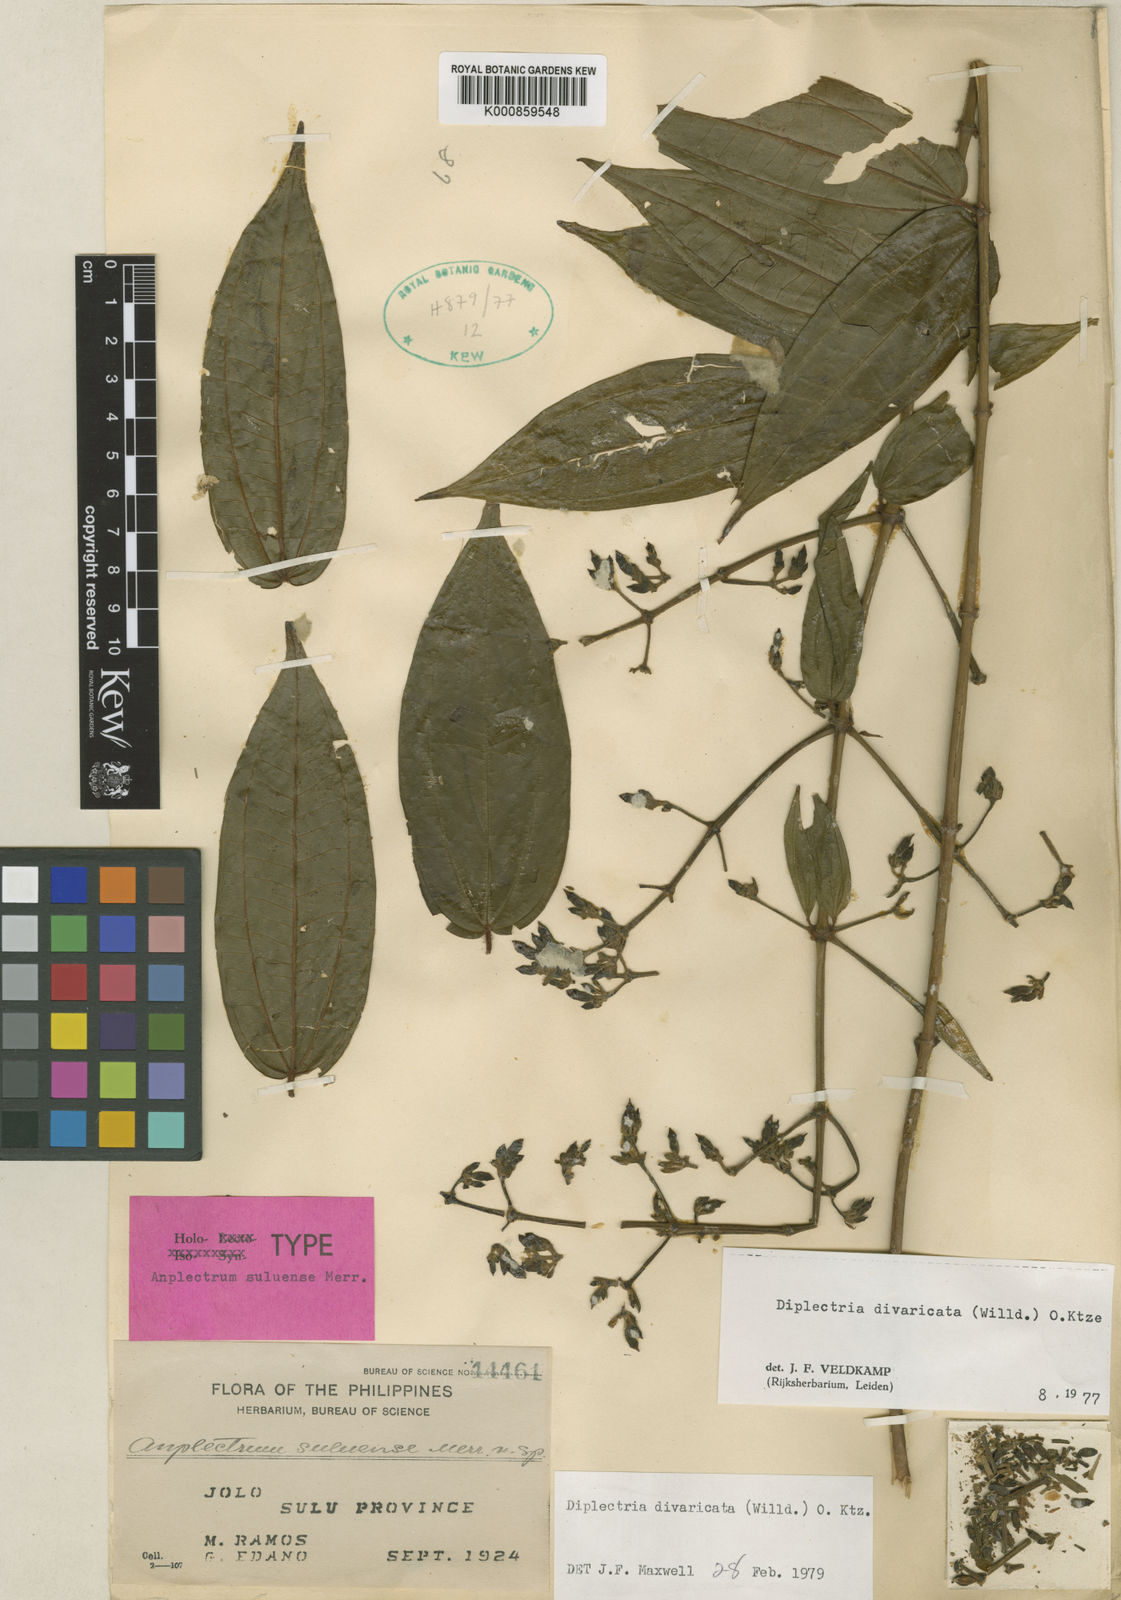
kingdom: Plantae
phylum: Tracheophyta
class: Magnoliopsida
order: Myrtales
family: Melastomataceae
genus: Diplectria
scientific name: Diplectria divaricata
